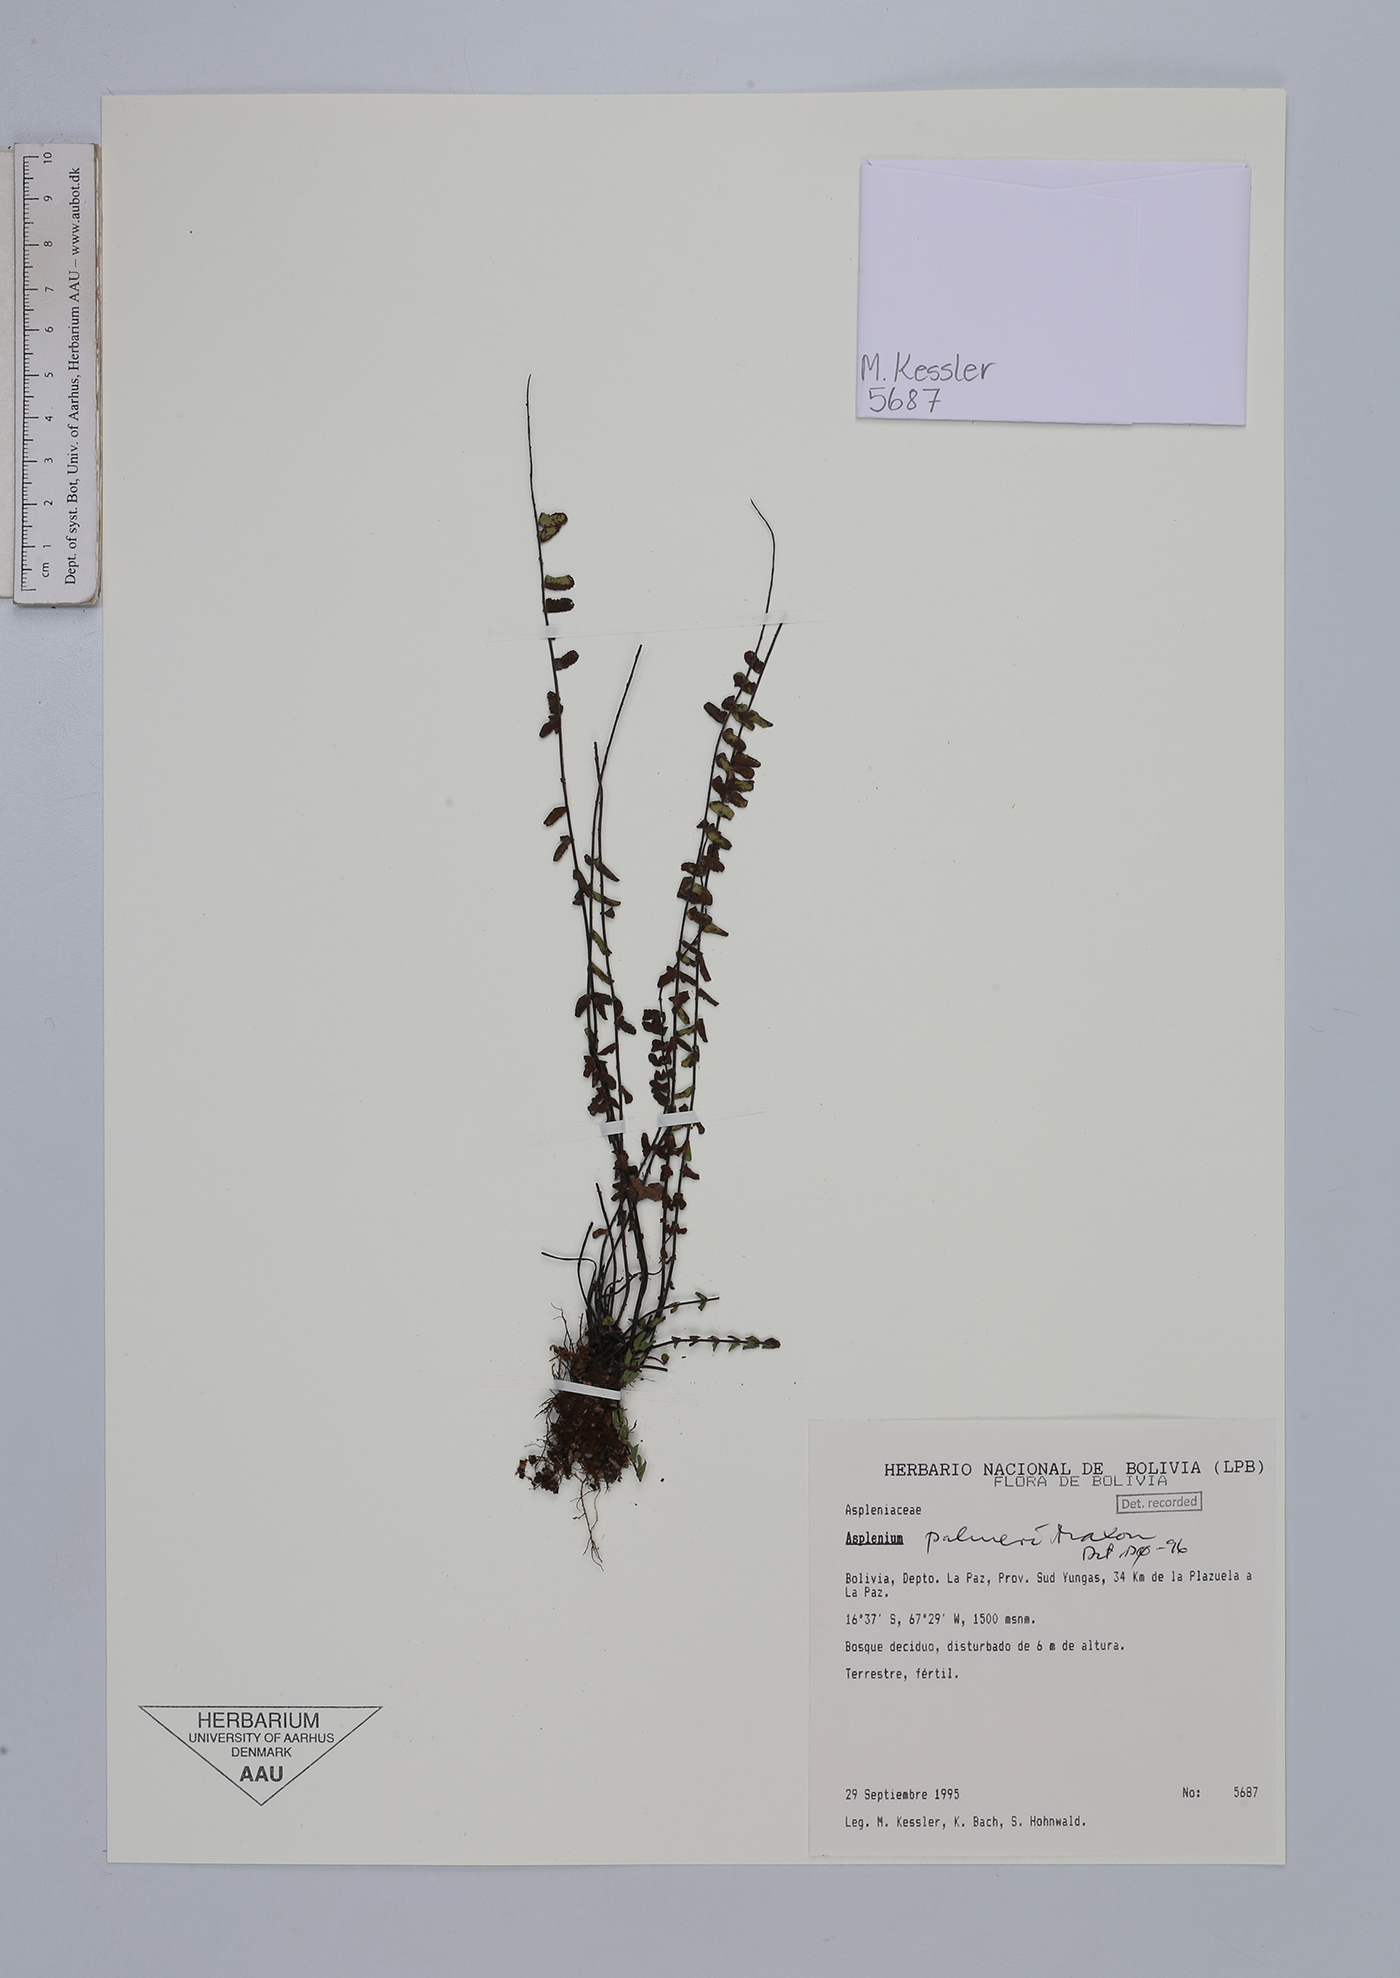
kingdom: Plantae
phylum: Tracheophyta
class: Polypodiopsida
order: Polypodiales
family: Aspleniaceae
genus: Asplenium
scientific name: Asplenium palmeri
